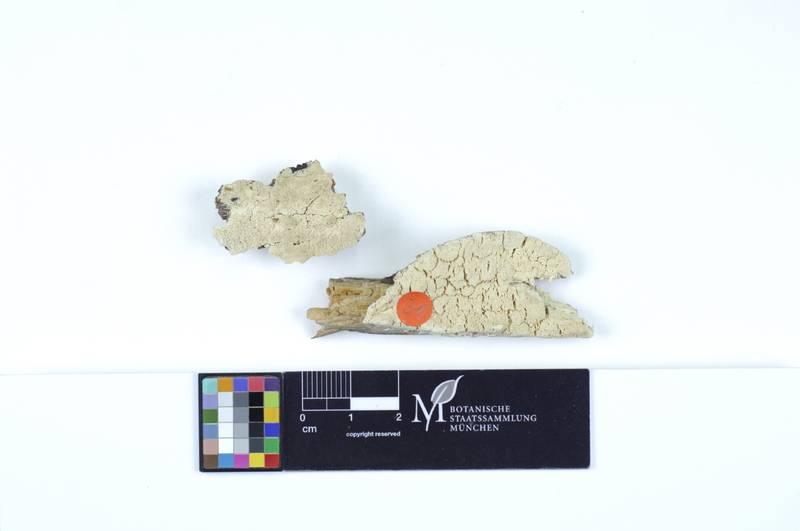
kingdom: Plantae
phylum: Tracheophyta
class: Pinopsida
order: Pinales
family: Pinaceae
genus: Pinus
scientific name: Pinus
